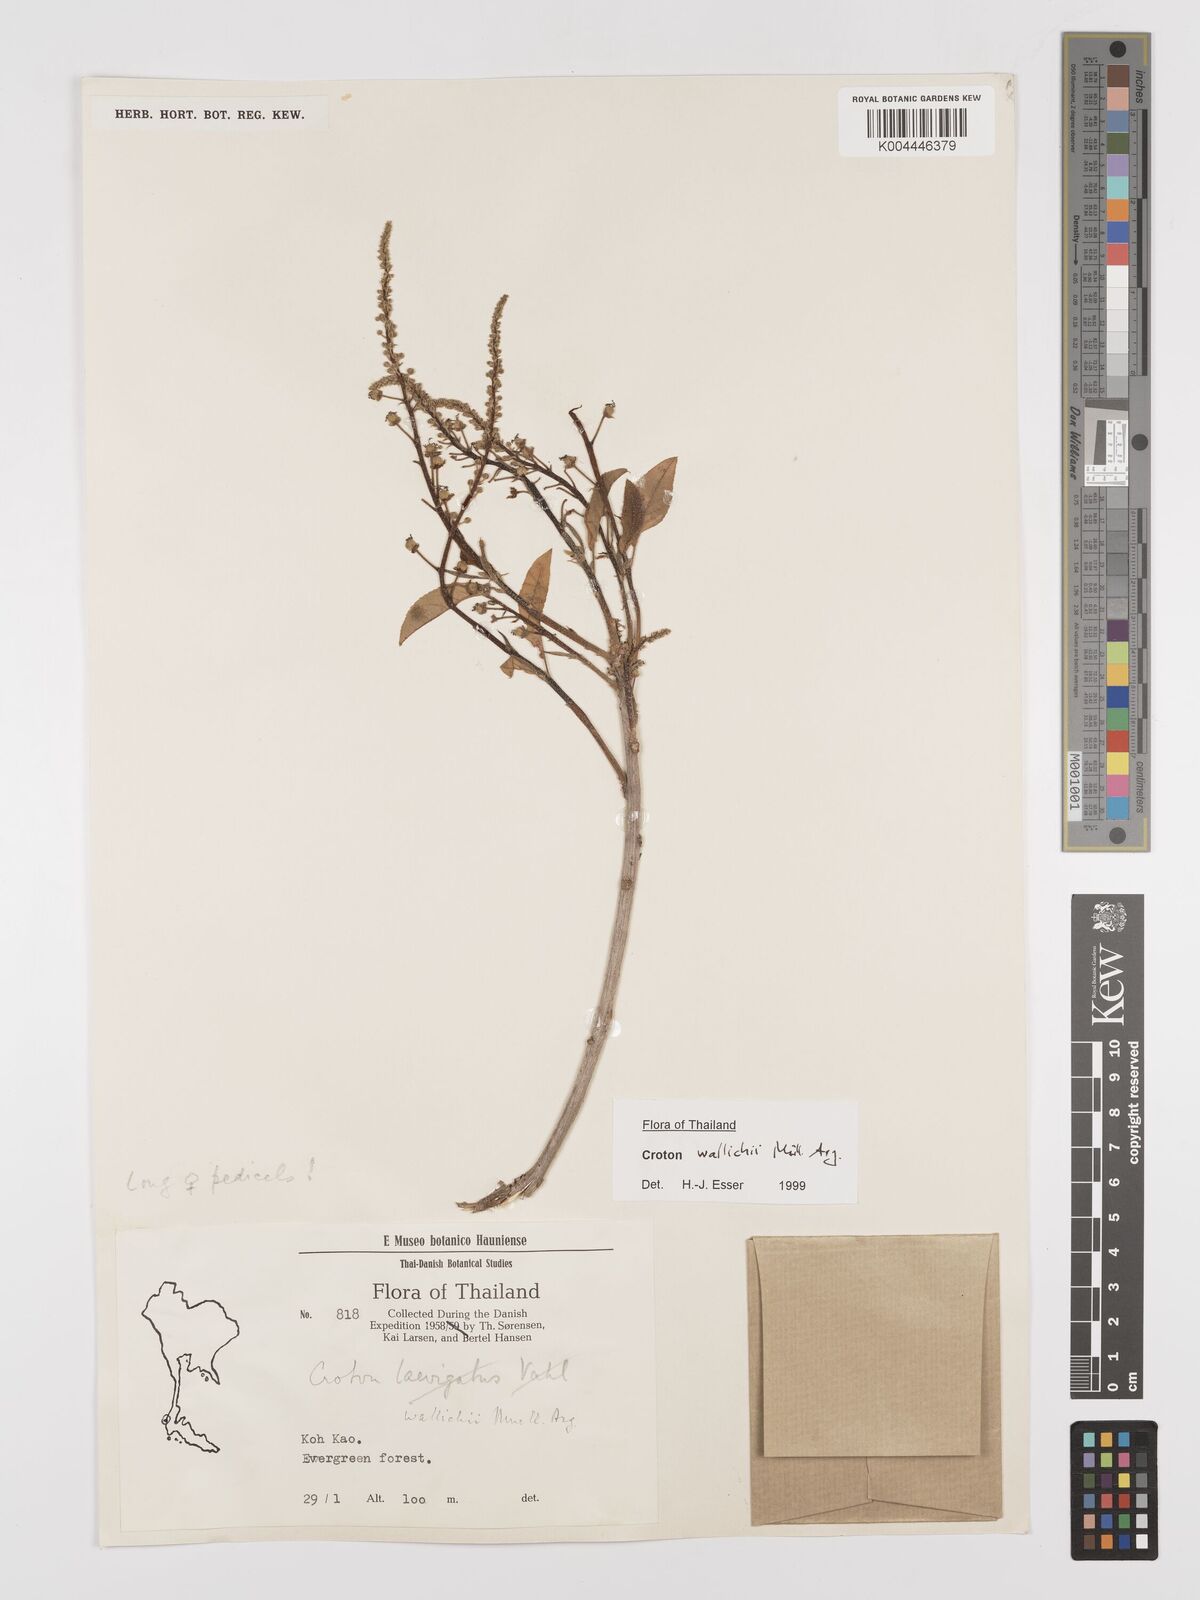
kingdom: Plantae
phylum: Tracheophyta
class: Magnoliopsida
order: Malpighiales
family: Euphorbiaceae
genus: Croton
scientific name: Croton wallichii
